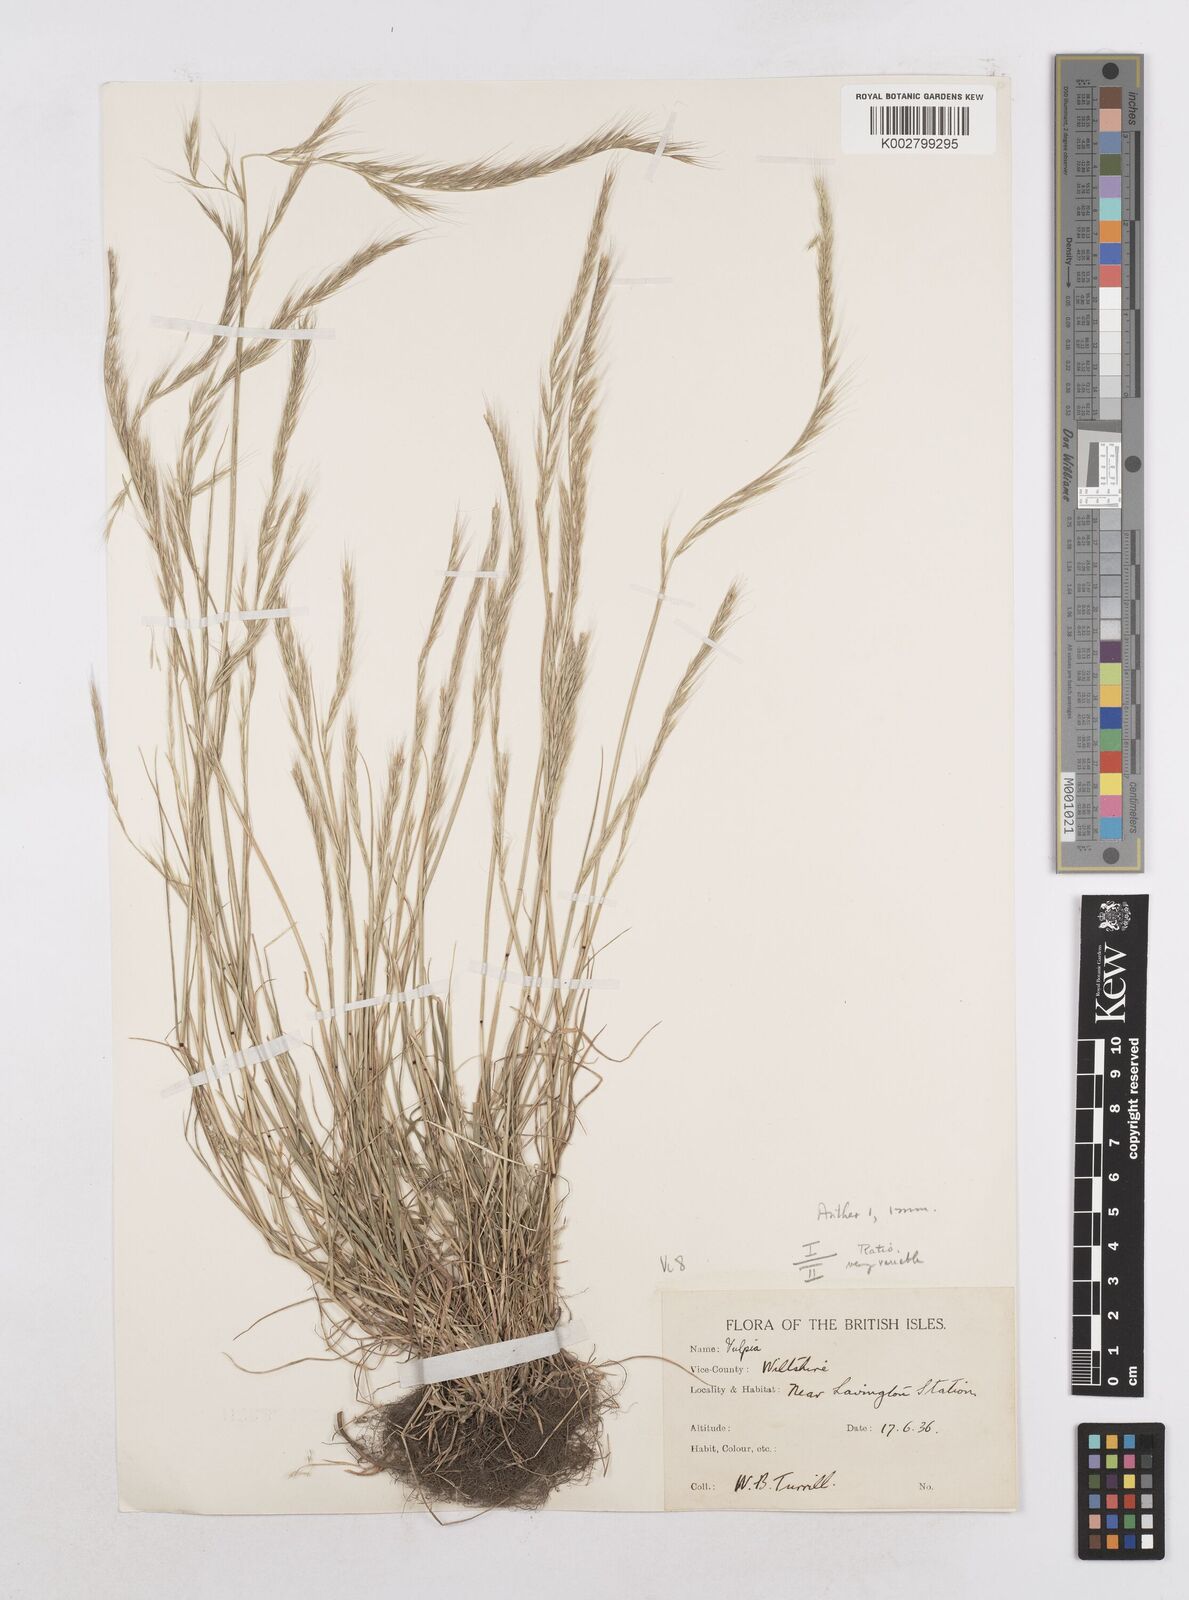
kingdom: Plantae
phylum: Tracheophyta
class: Liliopsida
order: Poales
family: Poaceae
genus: Festuca
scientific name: Festuca myuros
